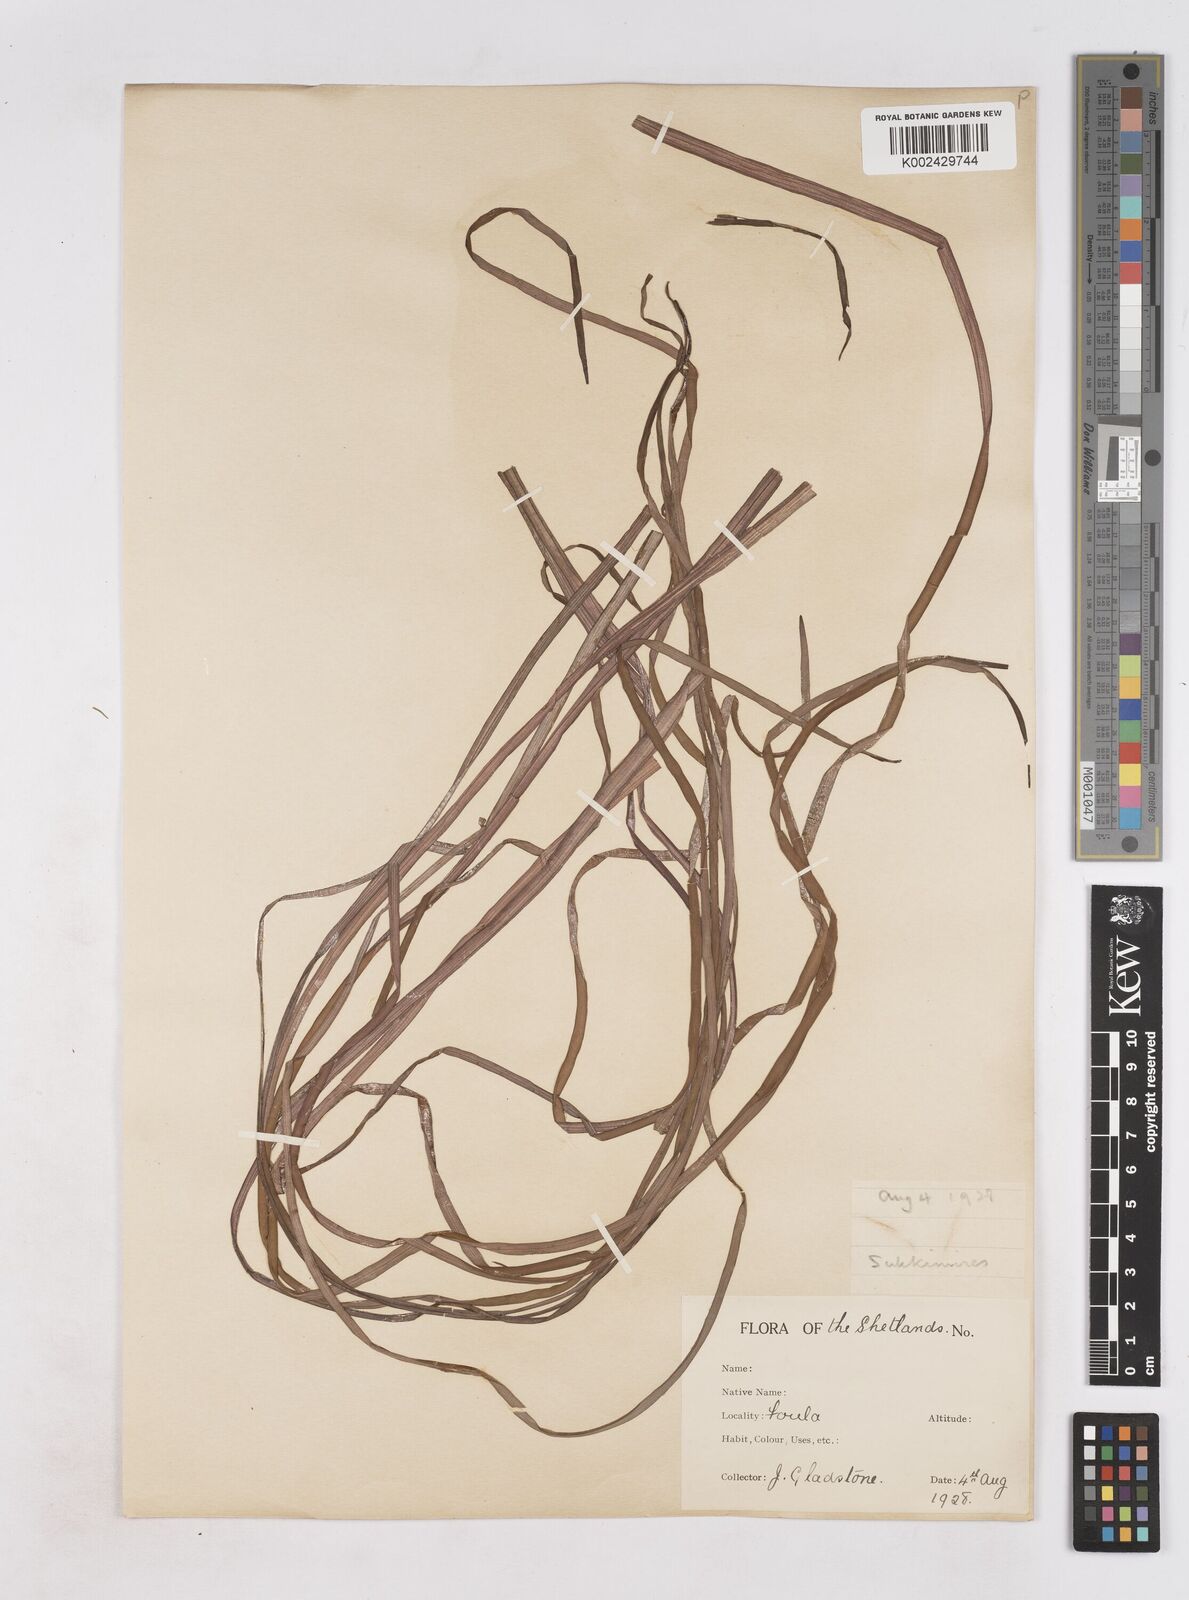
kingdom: Plantae
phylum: Tracheophyta
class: Liliopsida
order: Poales
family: Typhaceae
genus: Sparganium
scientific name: Sparganium angustifolium
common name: Floating bur-reed
